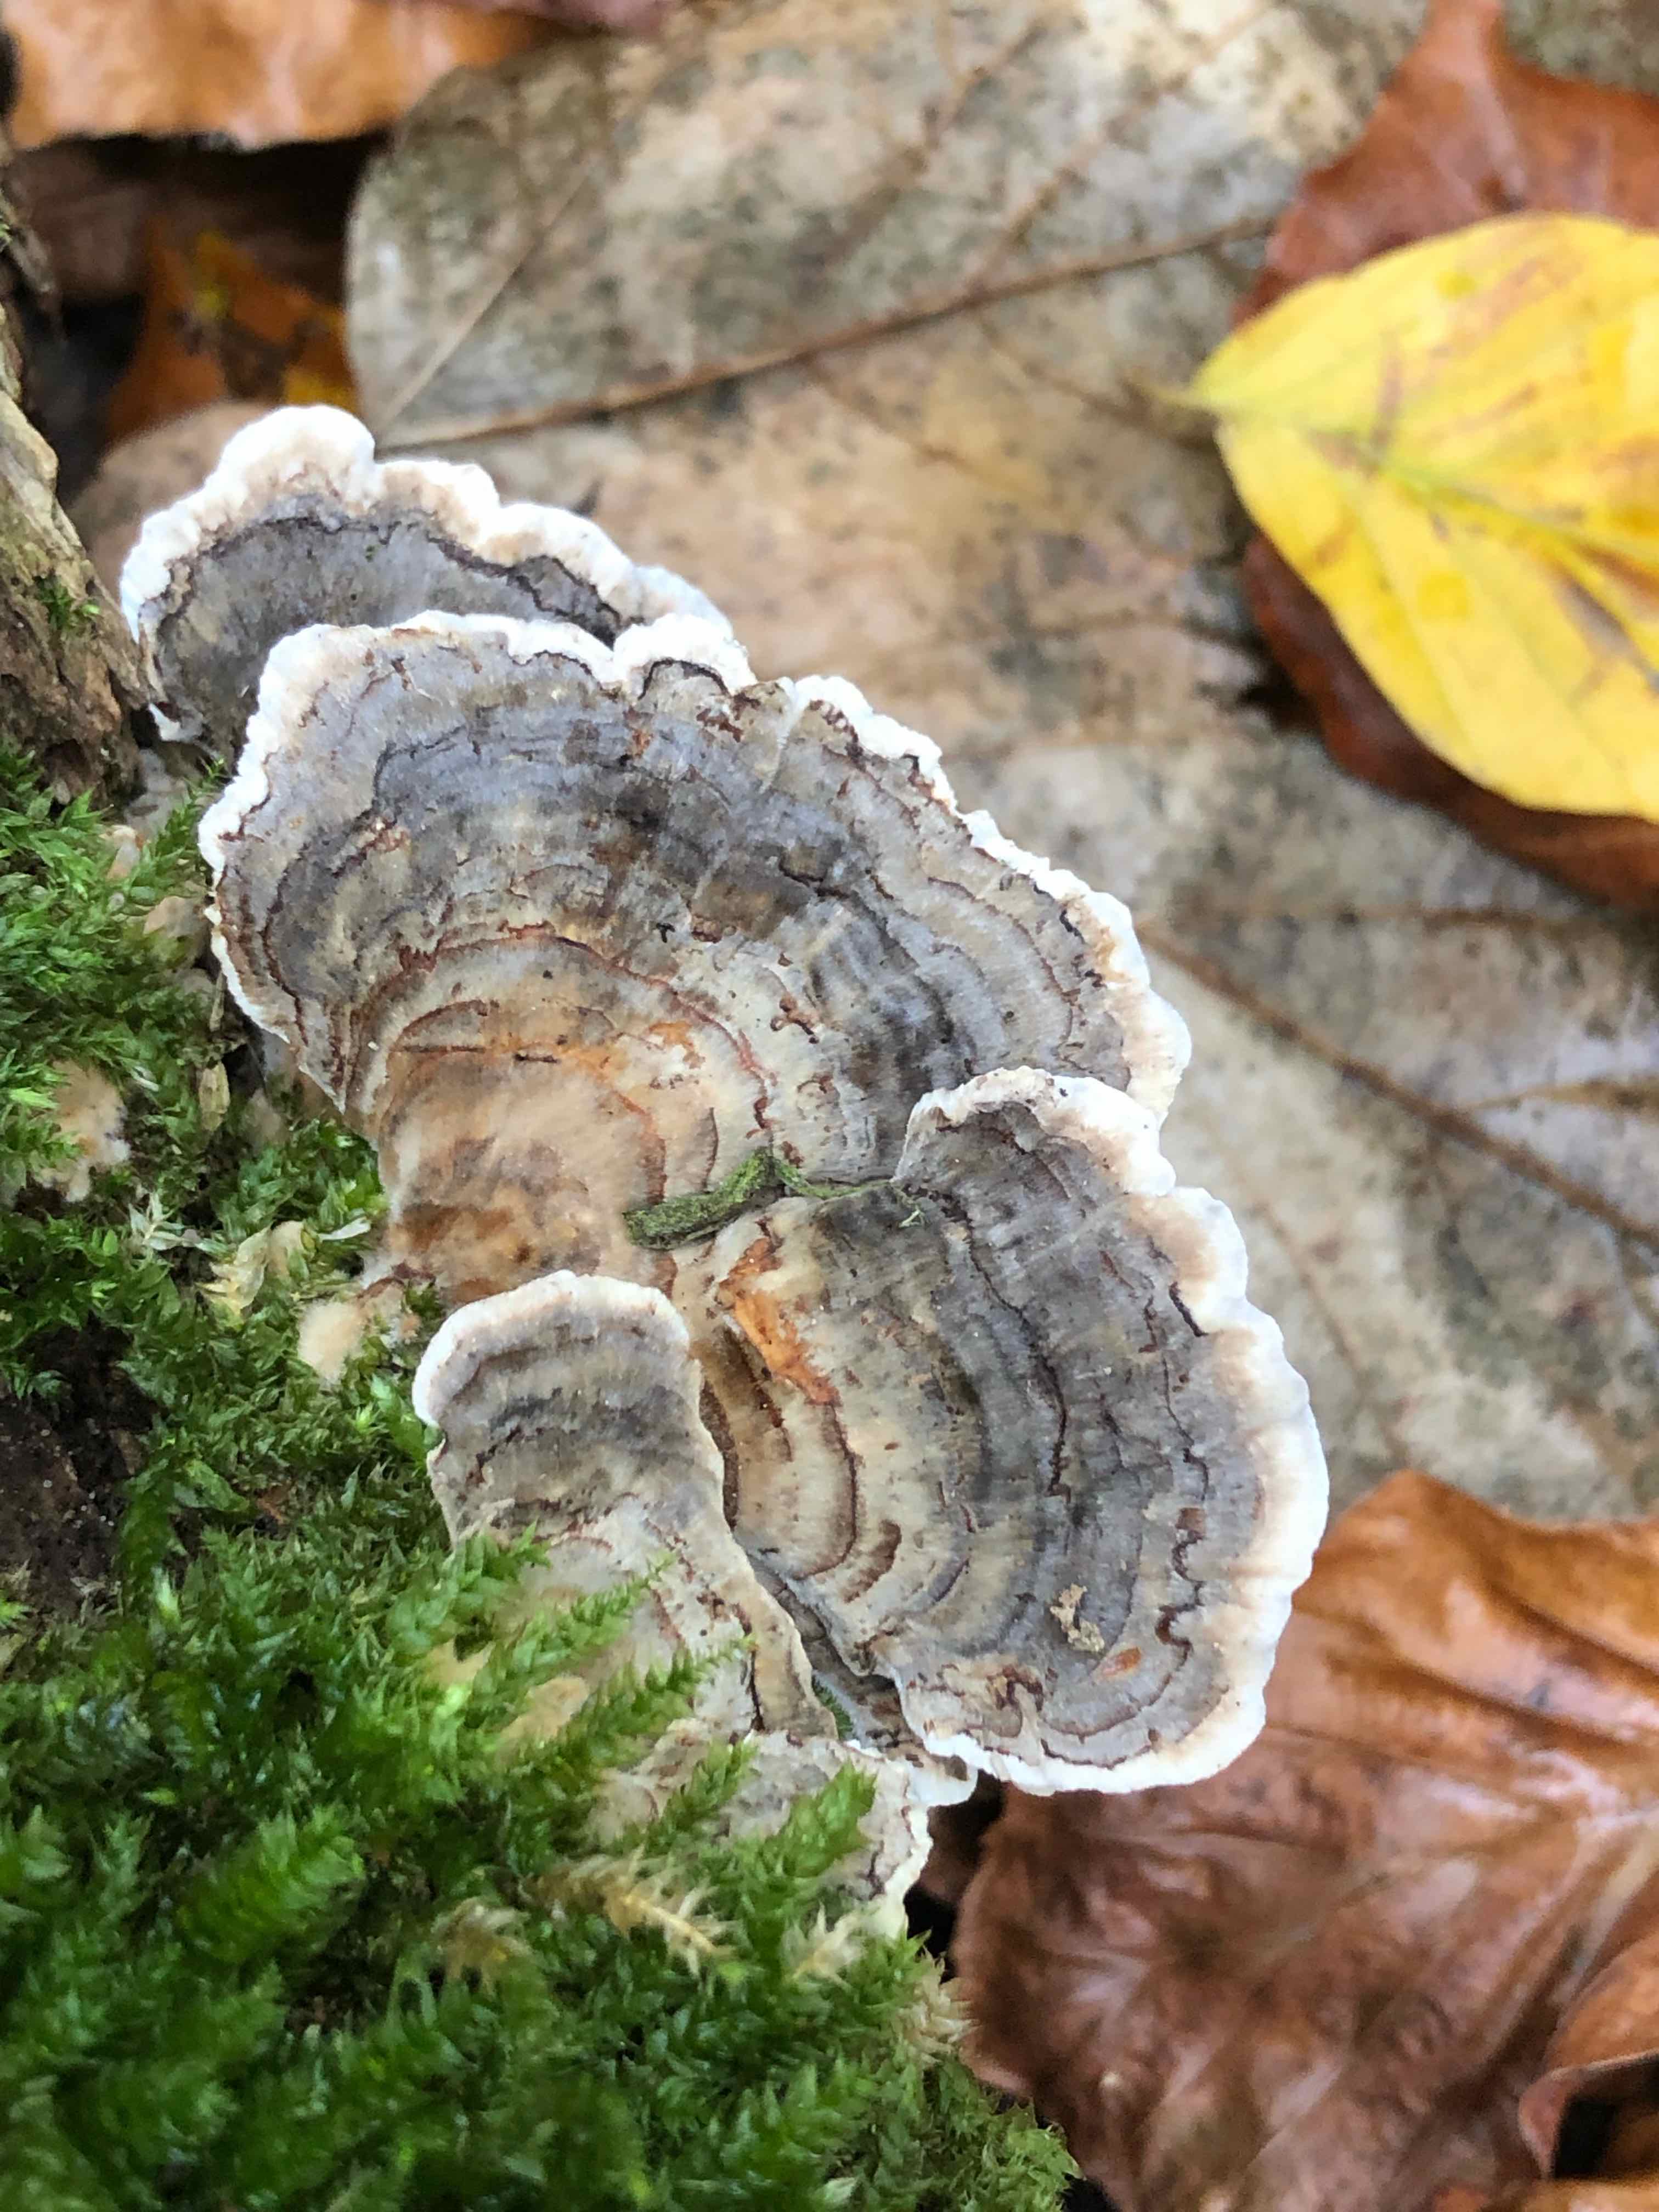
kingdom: Fungi
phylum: Basidiomycota
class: Agaricomycetes
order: Polyporales
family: Polyporaceae
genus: Trametes
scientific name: Trametes versicolor
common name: broget læderporesvamp
